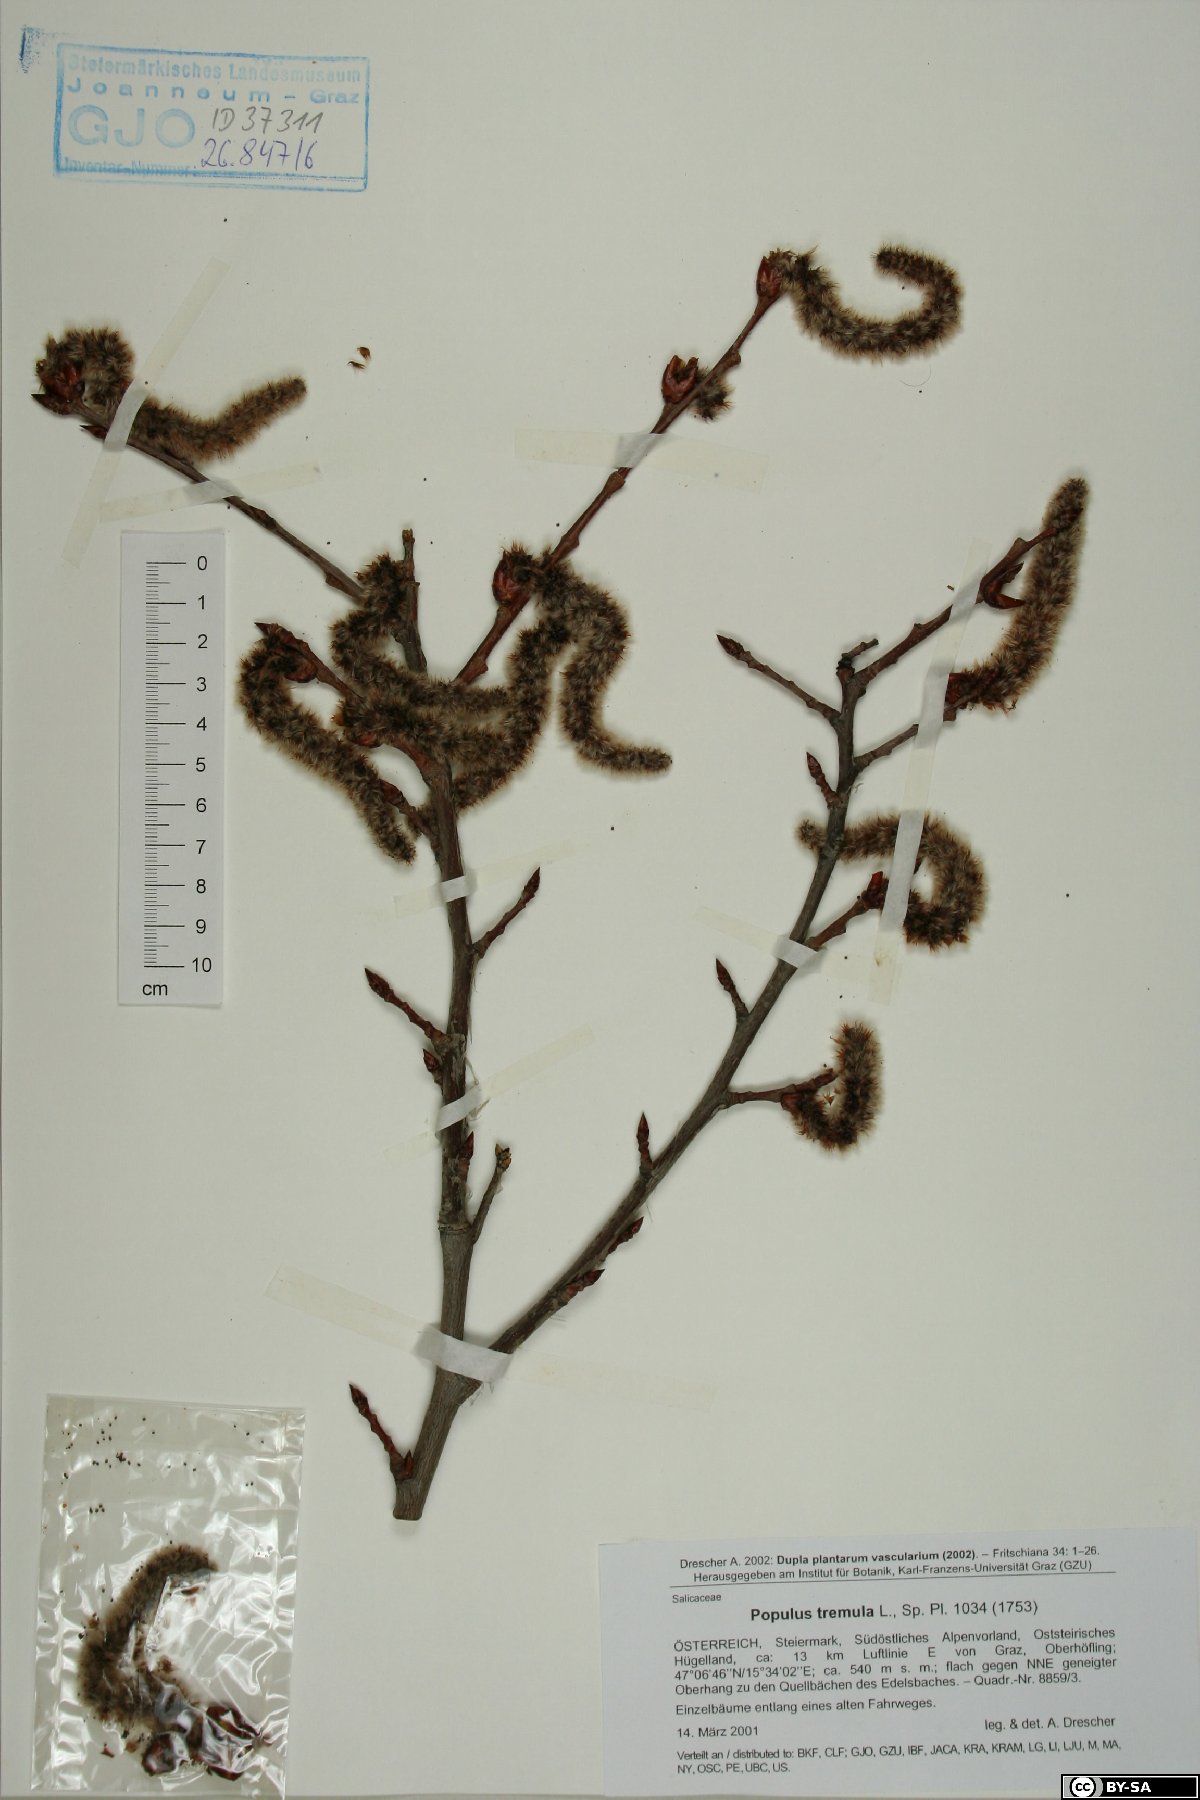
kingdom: Plantae
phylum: Tracheophyta
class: Magnoliopsida
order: Malpighiales
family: Salicaceae
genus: Populus
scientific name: Populus tremula
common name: European aspen
